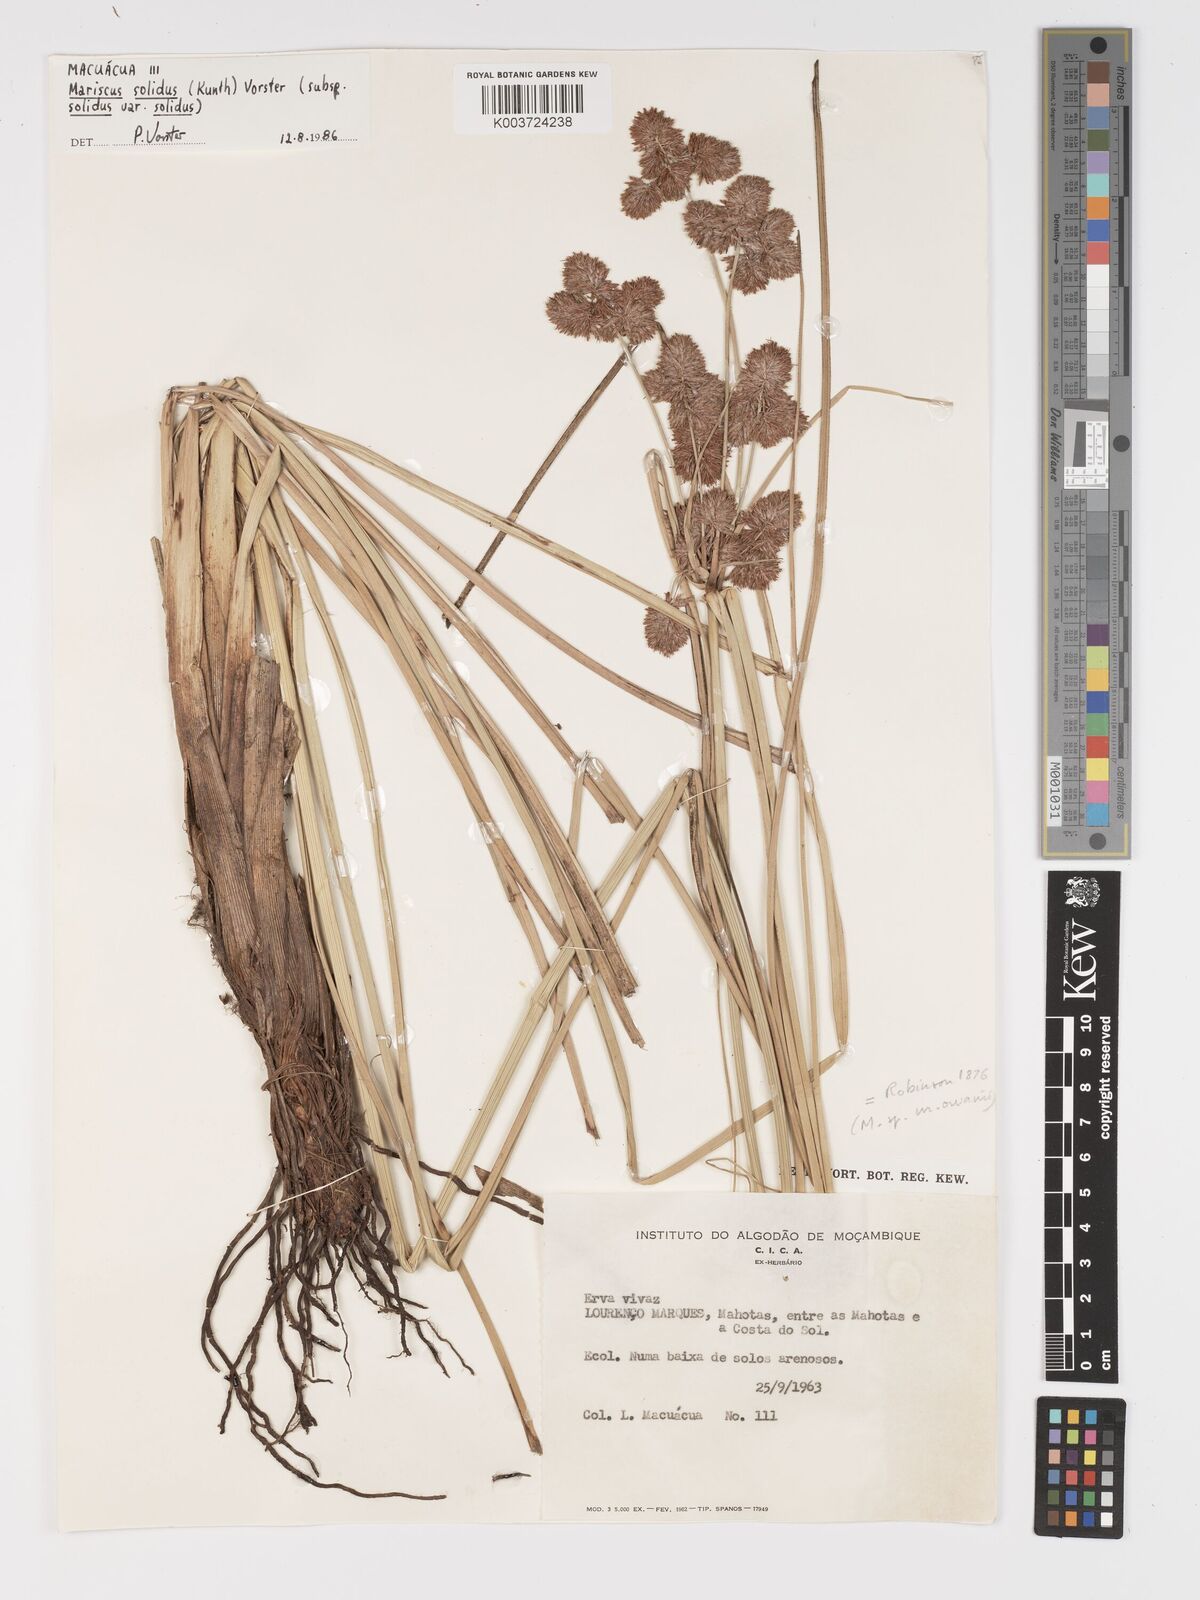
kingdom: Plantae
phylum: Tracheophyta
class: Liliopsida
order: Poales
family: Cyperaceae
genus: Cyperus
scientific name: Cyperus solidus
